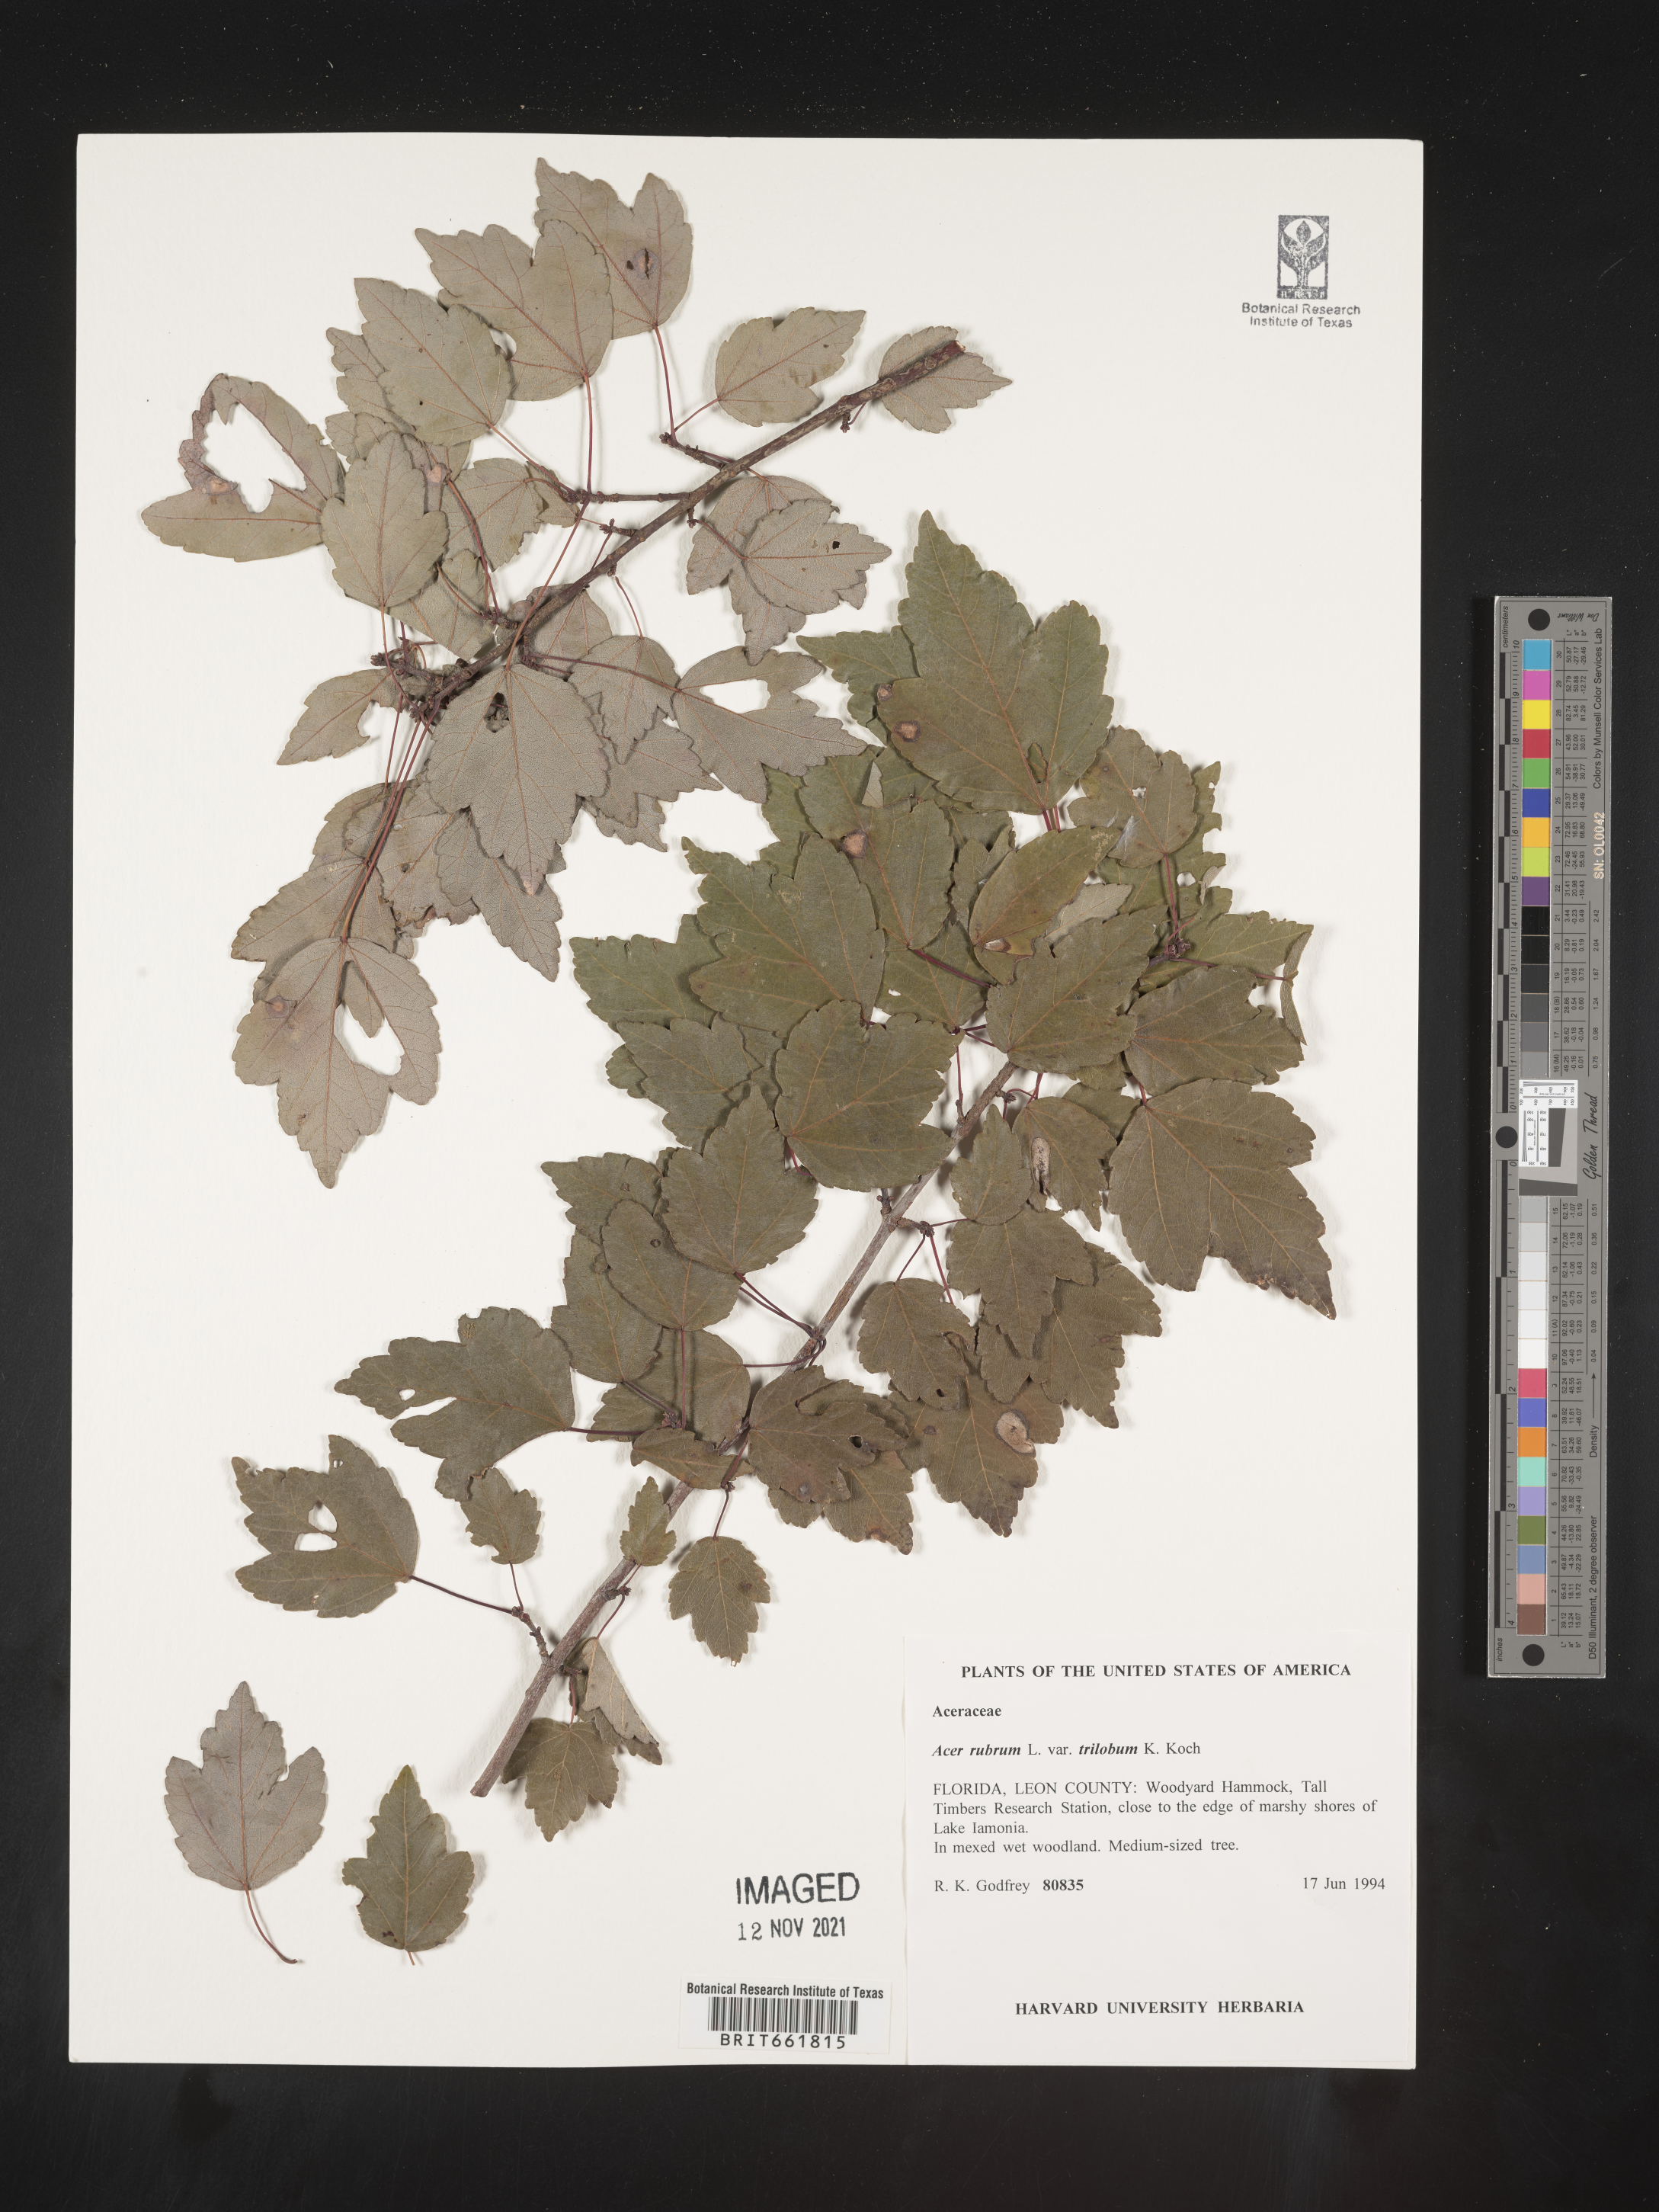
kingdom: Plantae
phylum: Tracheophyta
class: Magnoliopsida
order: Sapindales
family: Sapindaceae
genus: Acer
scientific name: Acer rubrum
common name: Red maple
